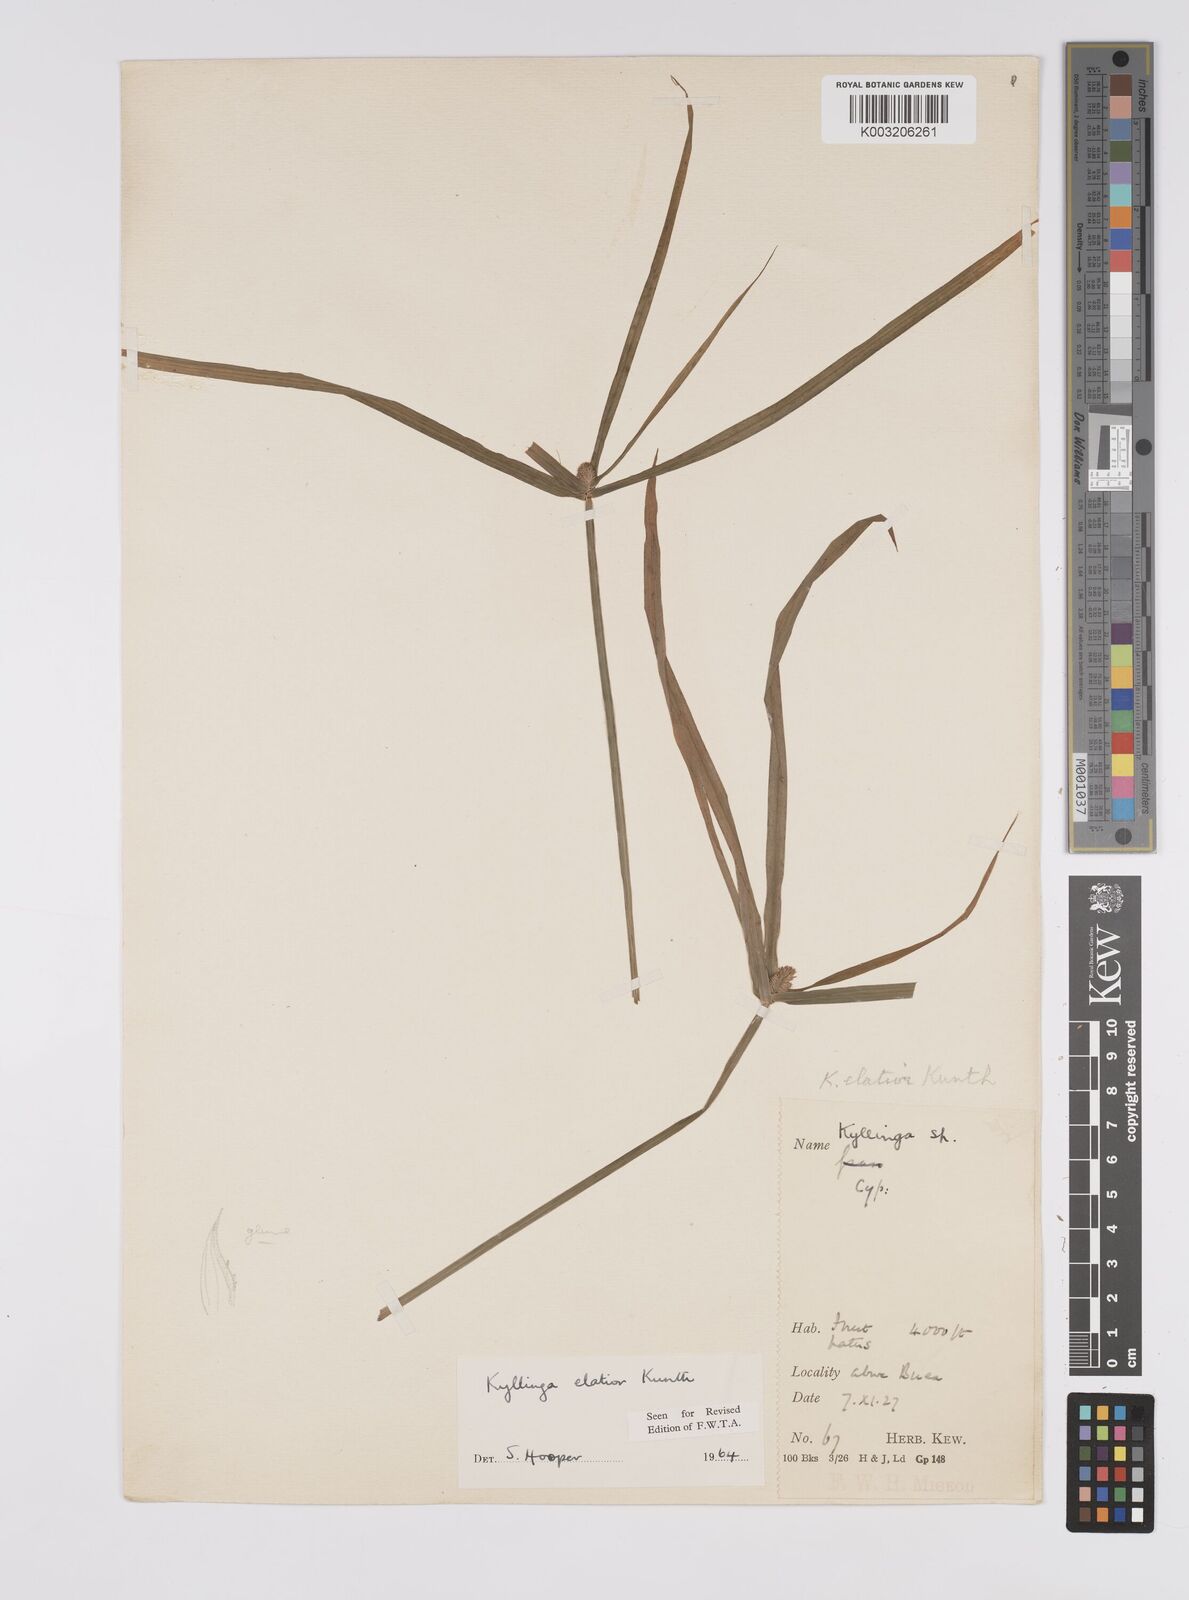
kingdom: Plantae
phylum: Tracheophyta
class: Liliopsida
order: Poales
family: Cyperaceae
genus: Cyperus
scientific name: Cyperus
